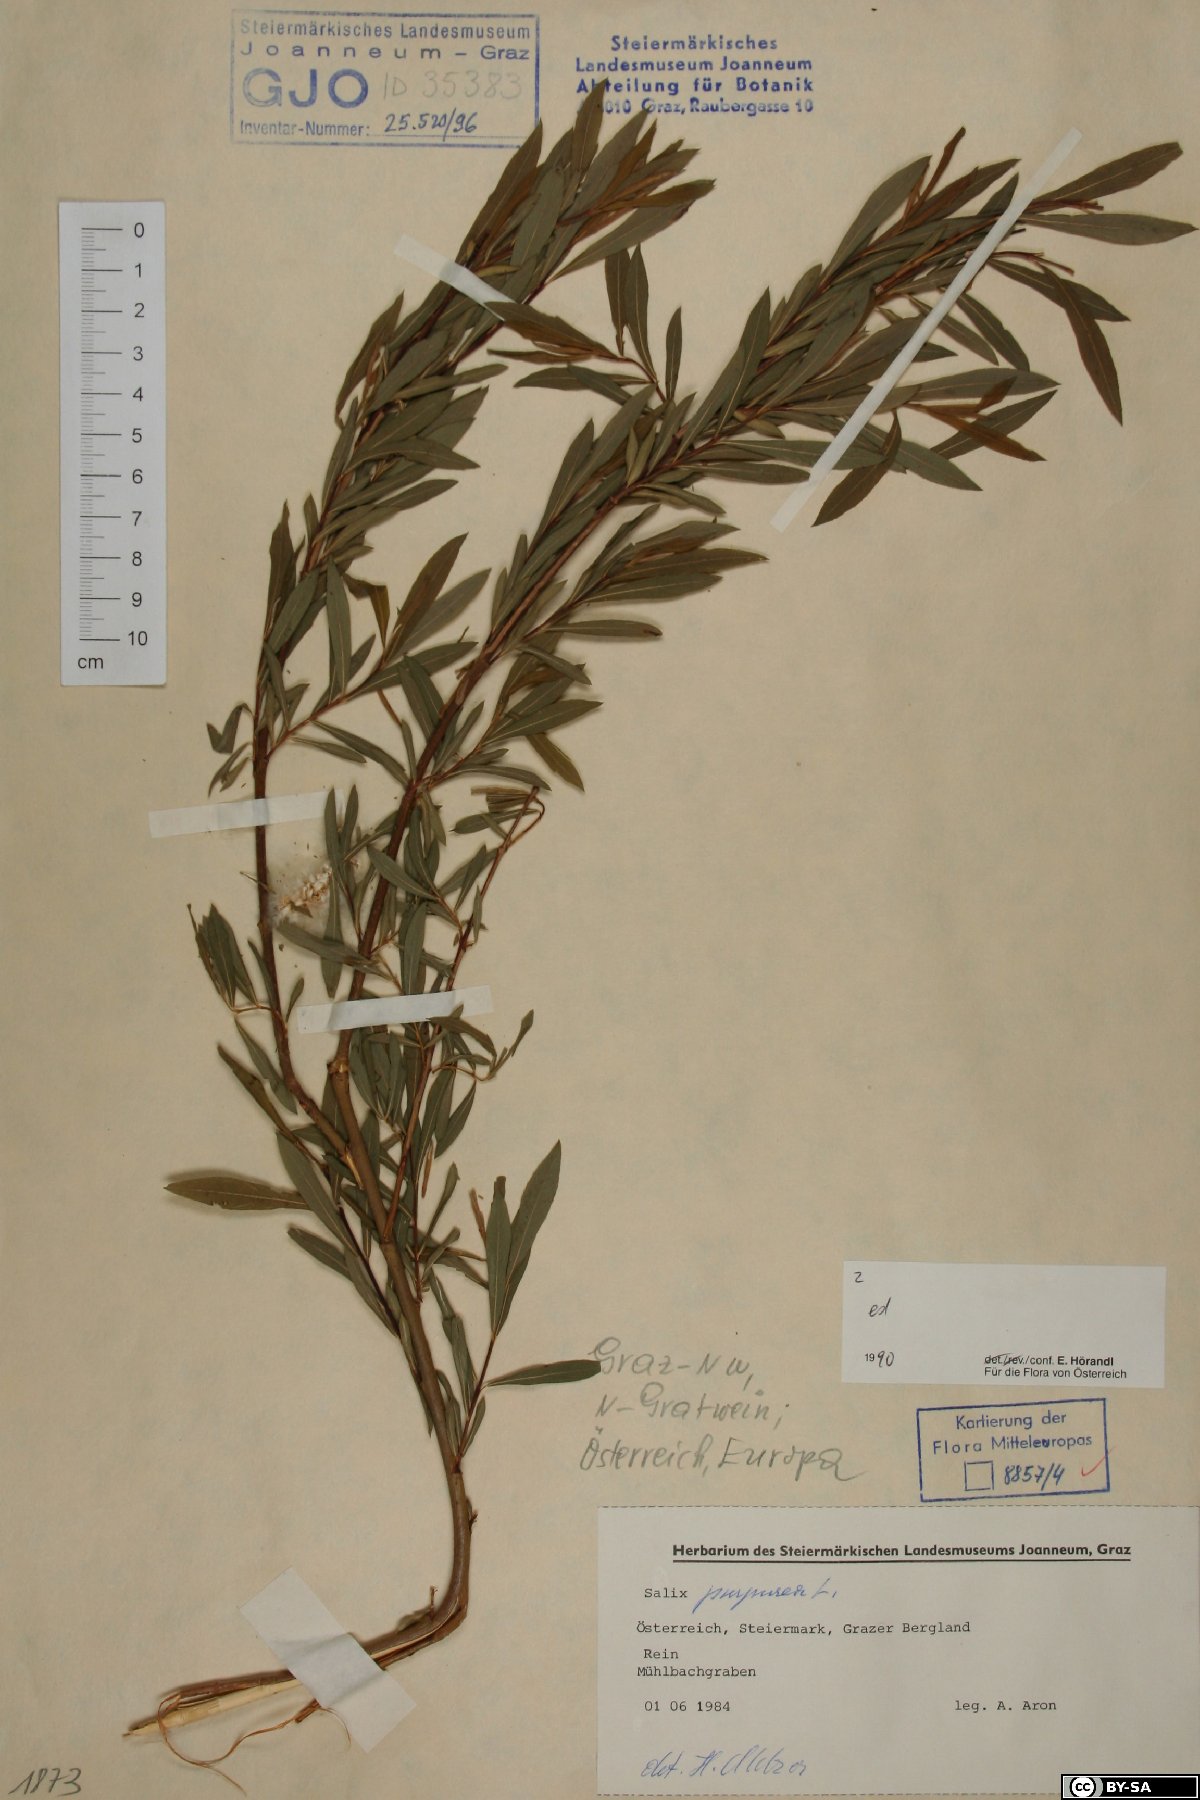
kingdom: Plantae
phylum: Tracheophyta
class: Magnoliopsida
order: Malpighiales
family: Salicaceae
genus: Salix
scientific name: Salix purpurea
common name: Purple willow
